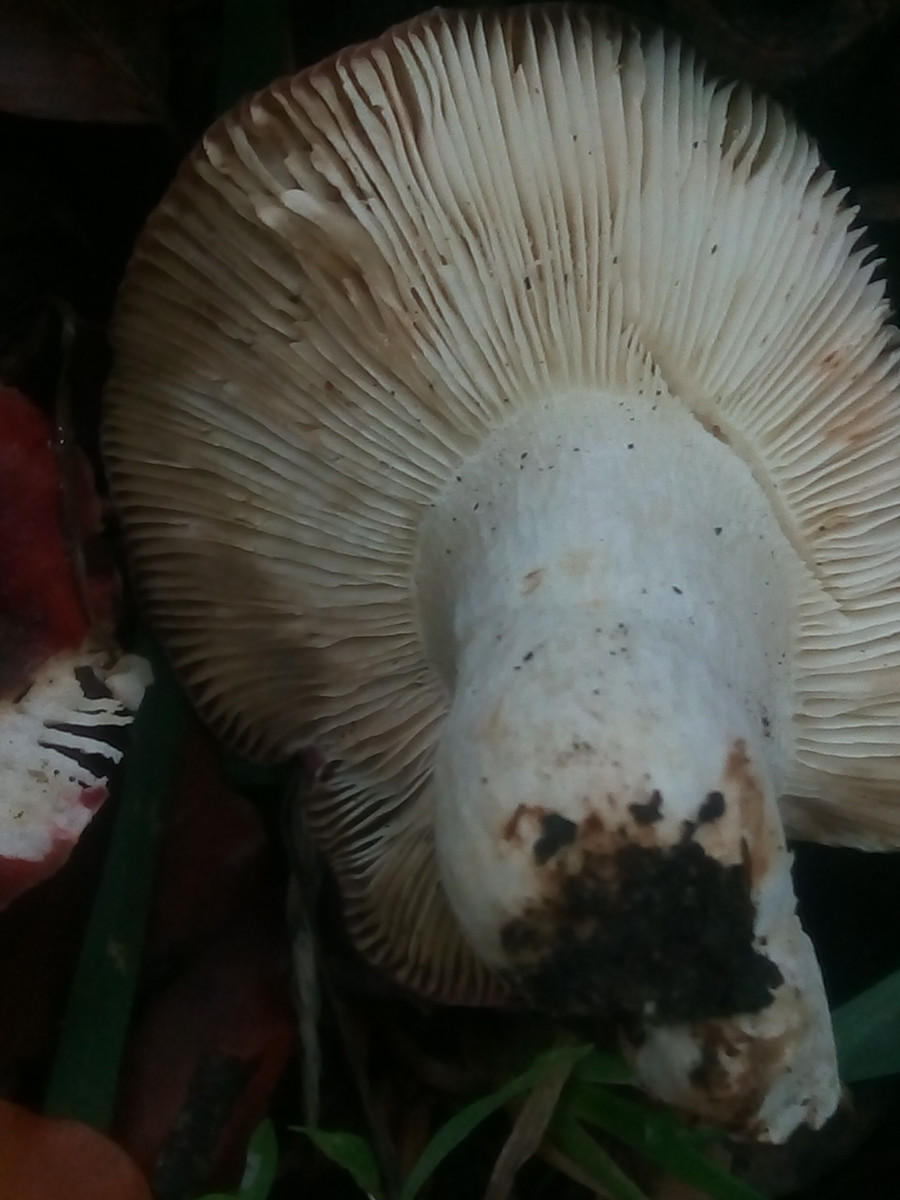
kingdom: Fungi
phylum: Basidiomycota
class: Agaricomycetes
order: Russulales
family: Russulaceae
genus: Russula
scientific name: Russula atropurpurea
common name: purpurbroget skørhat
